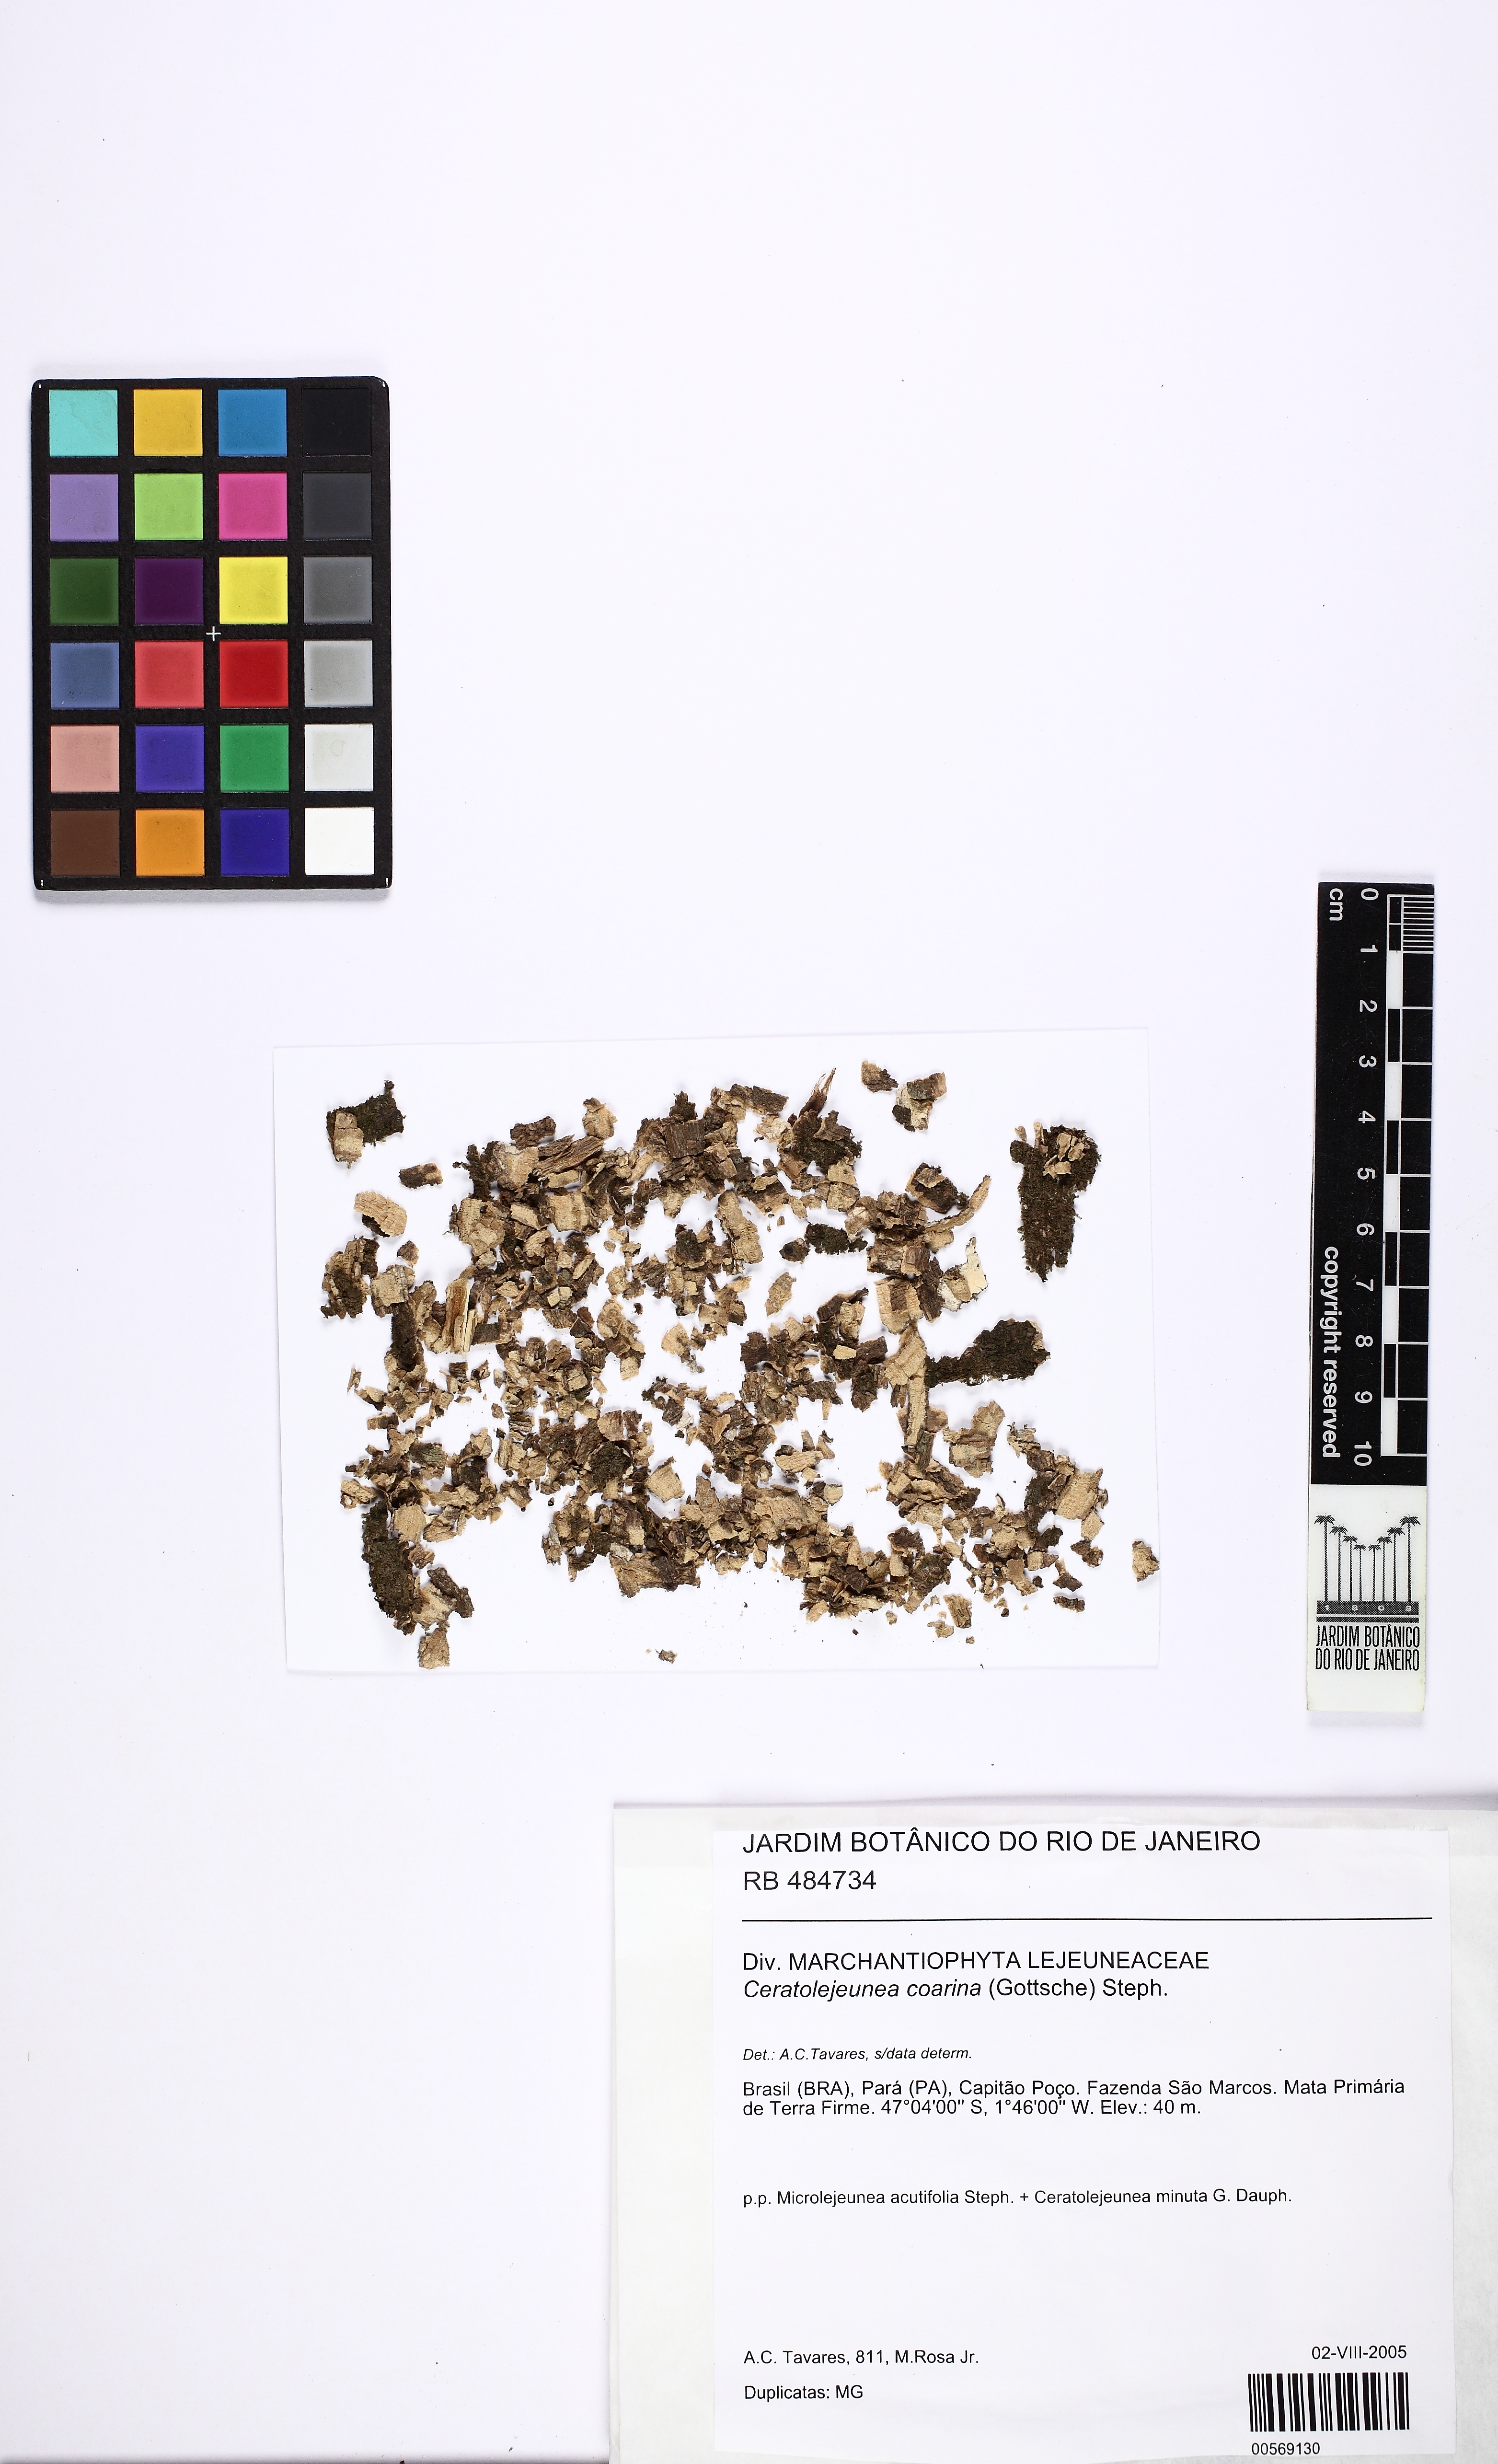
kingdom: Plantae
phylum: Marchantiophyta
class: Jungermanniopsida
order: Porellales
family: Lejeuneaceae
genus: Ceratolejeunea
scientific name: Ceratolejeunea coarina
